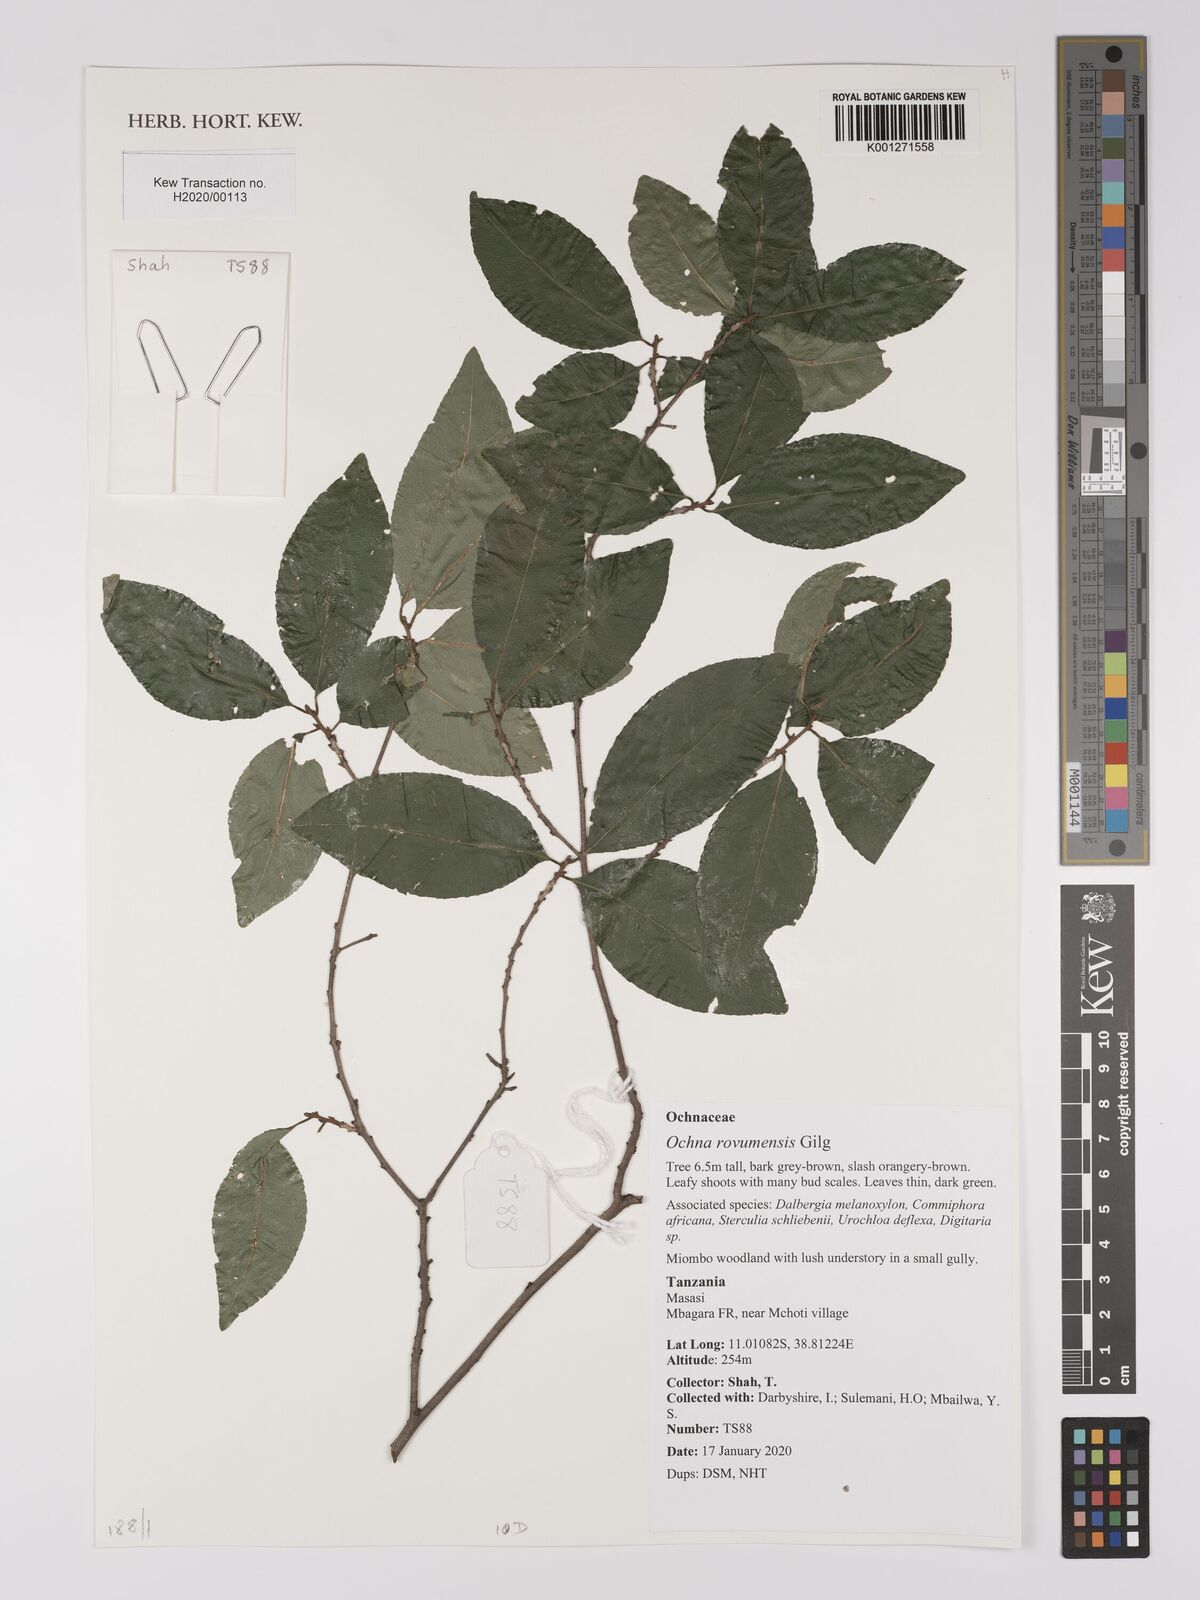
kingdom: Plantae
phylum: Tracheophyta
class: Magnoliopsida
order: Malpighiales
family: Ochnaceae
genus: Ochna
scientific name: Ochna rovumensis
